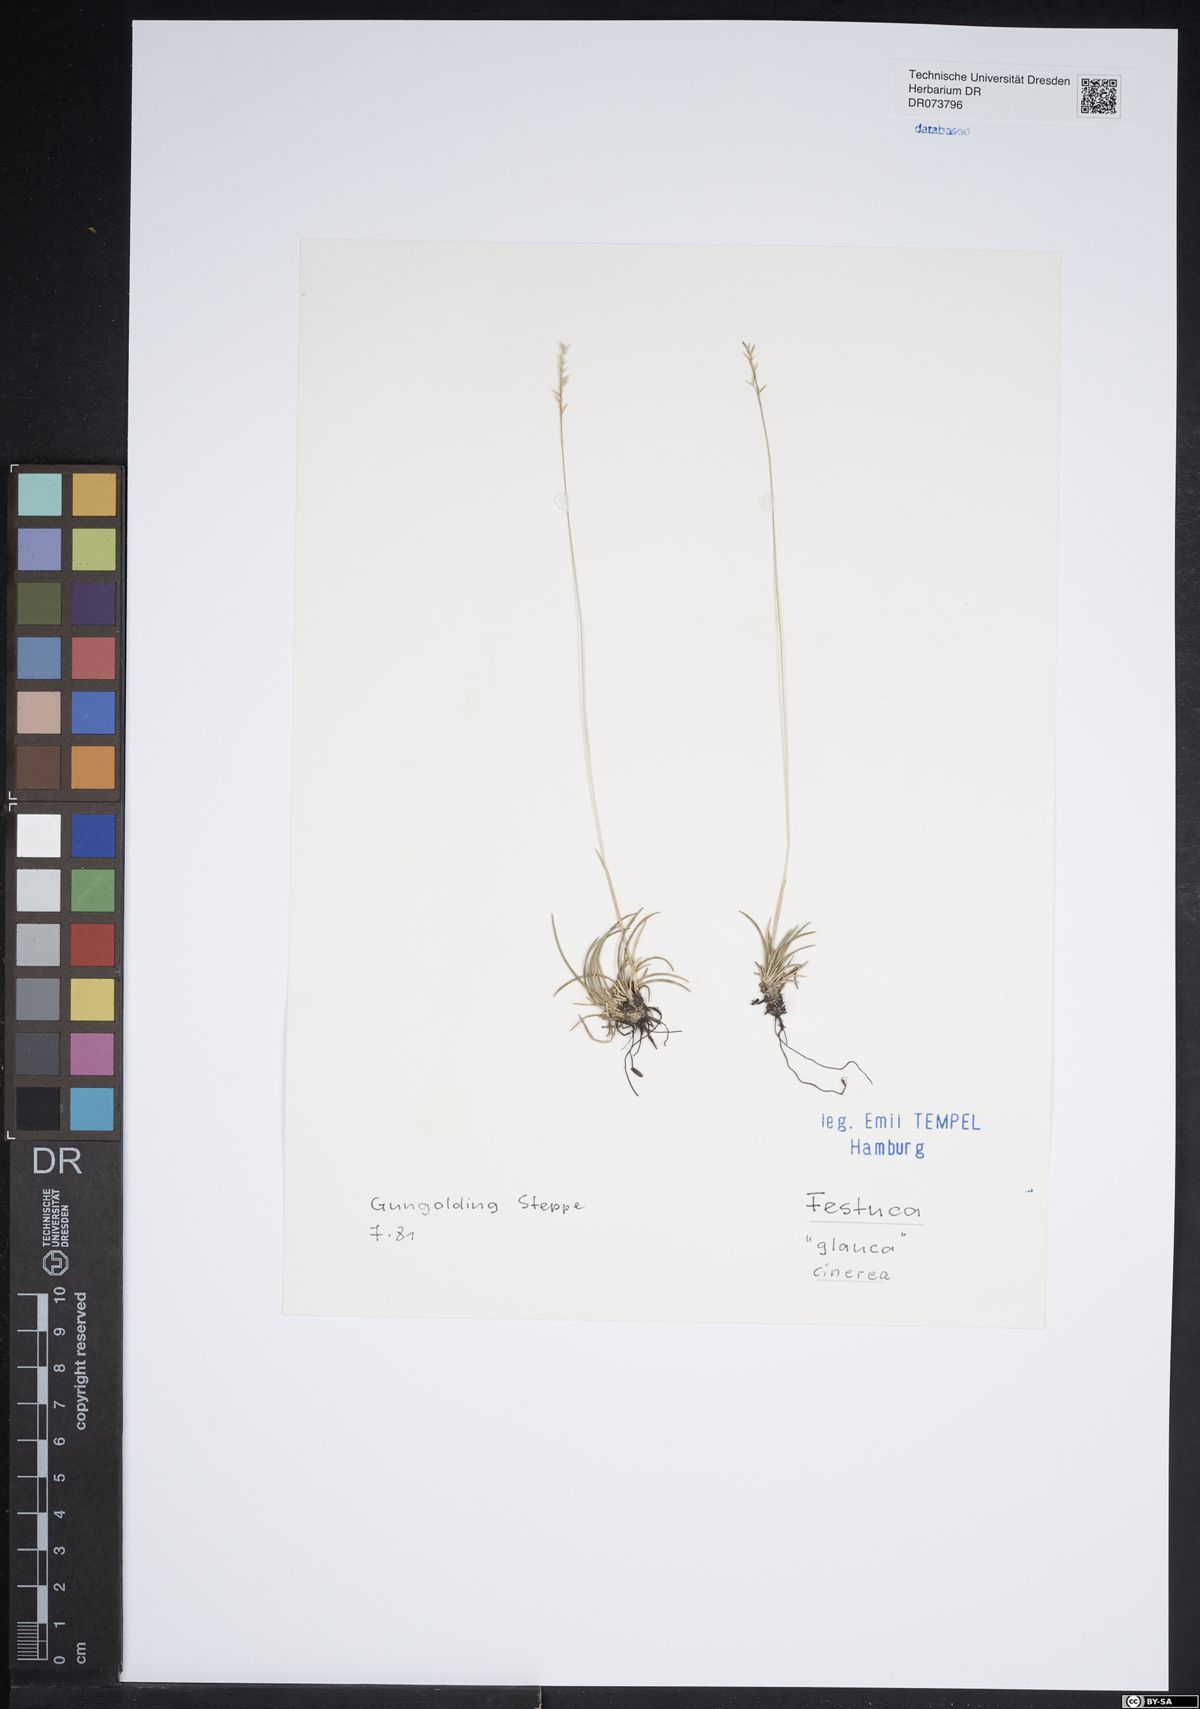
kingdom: Plantae
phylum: Tracheophyta
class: Liliopsida
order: Poales
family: Poaceae
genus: Festuca
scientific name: Festuca cinerea
